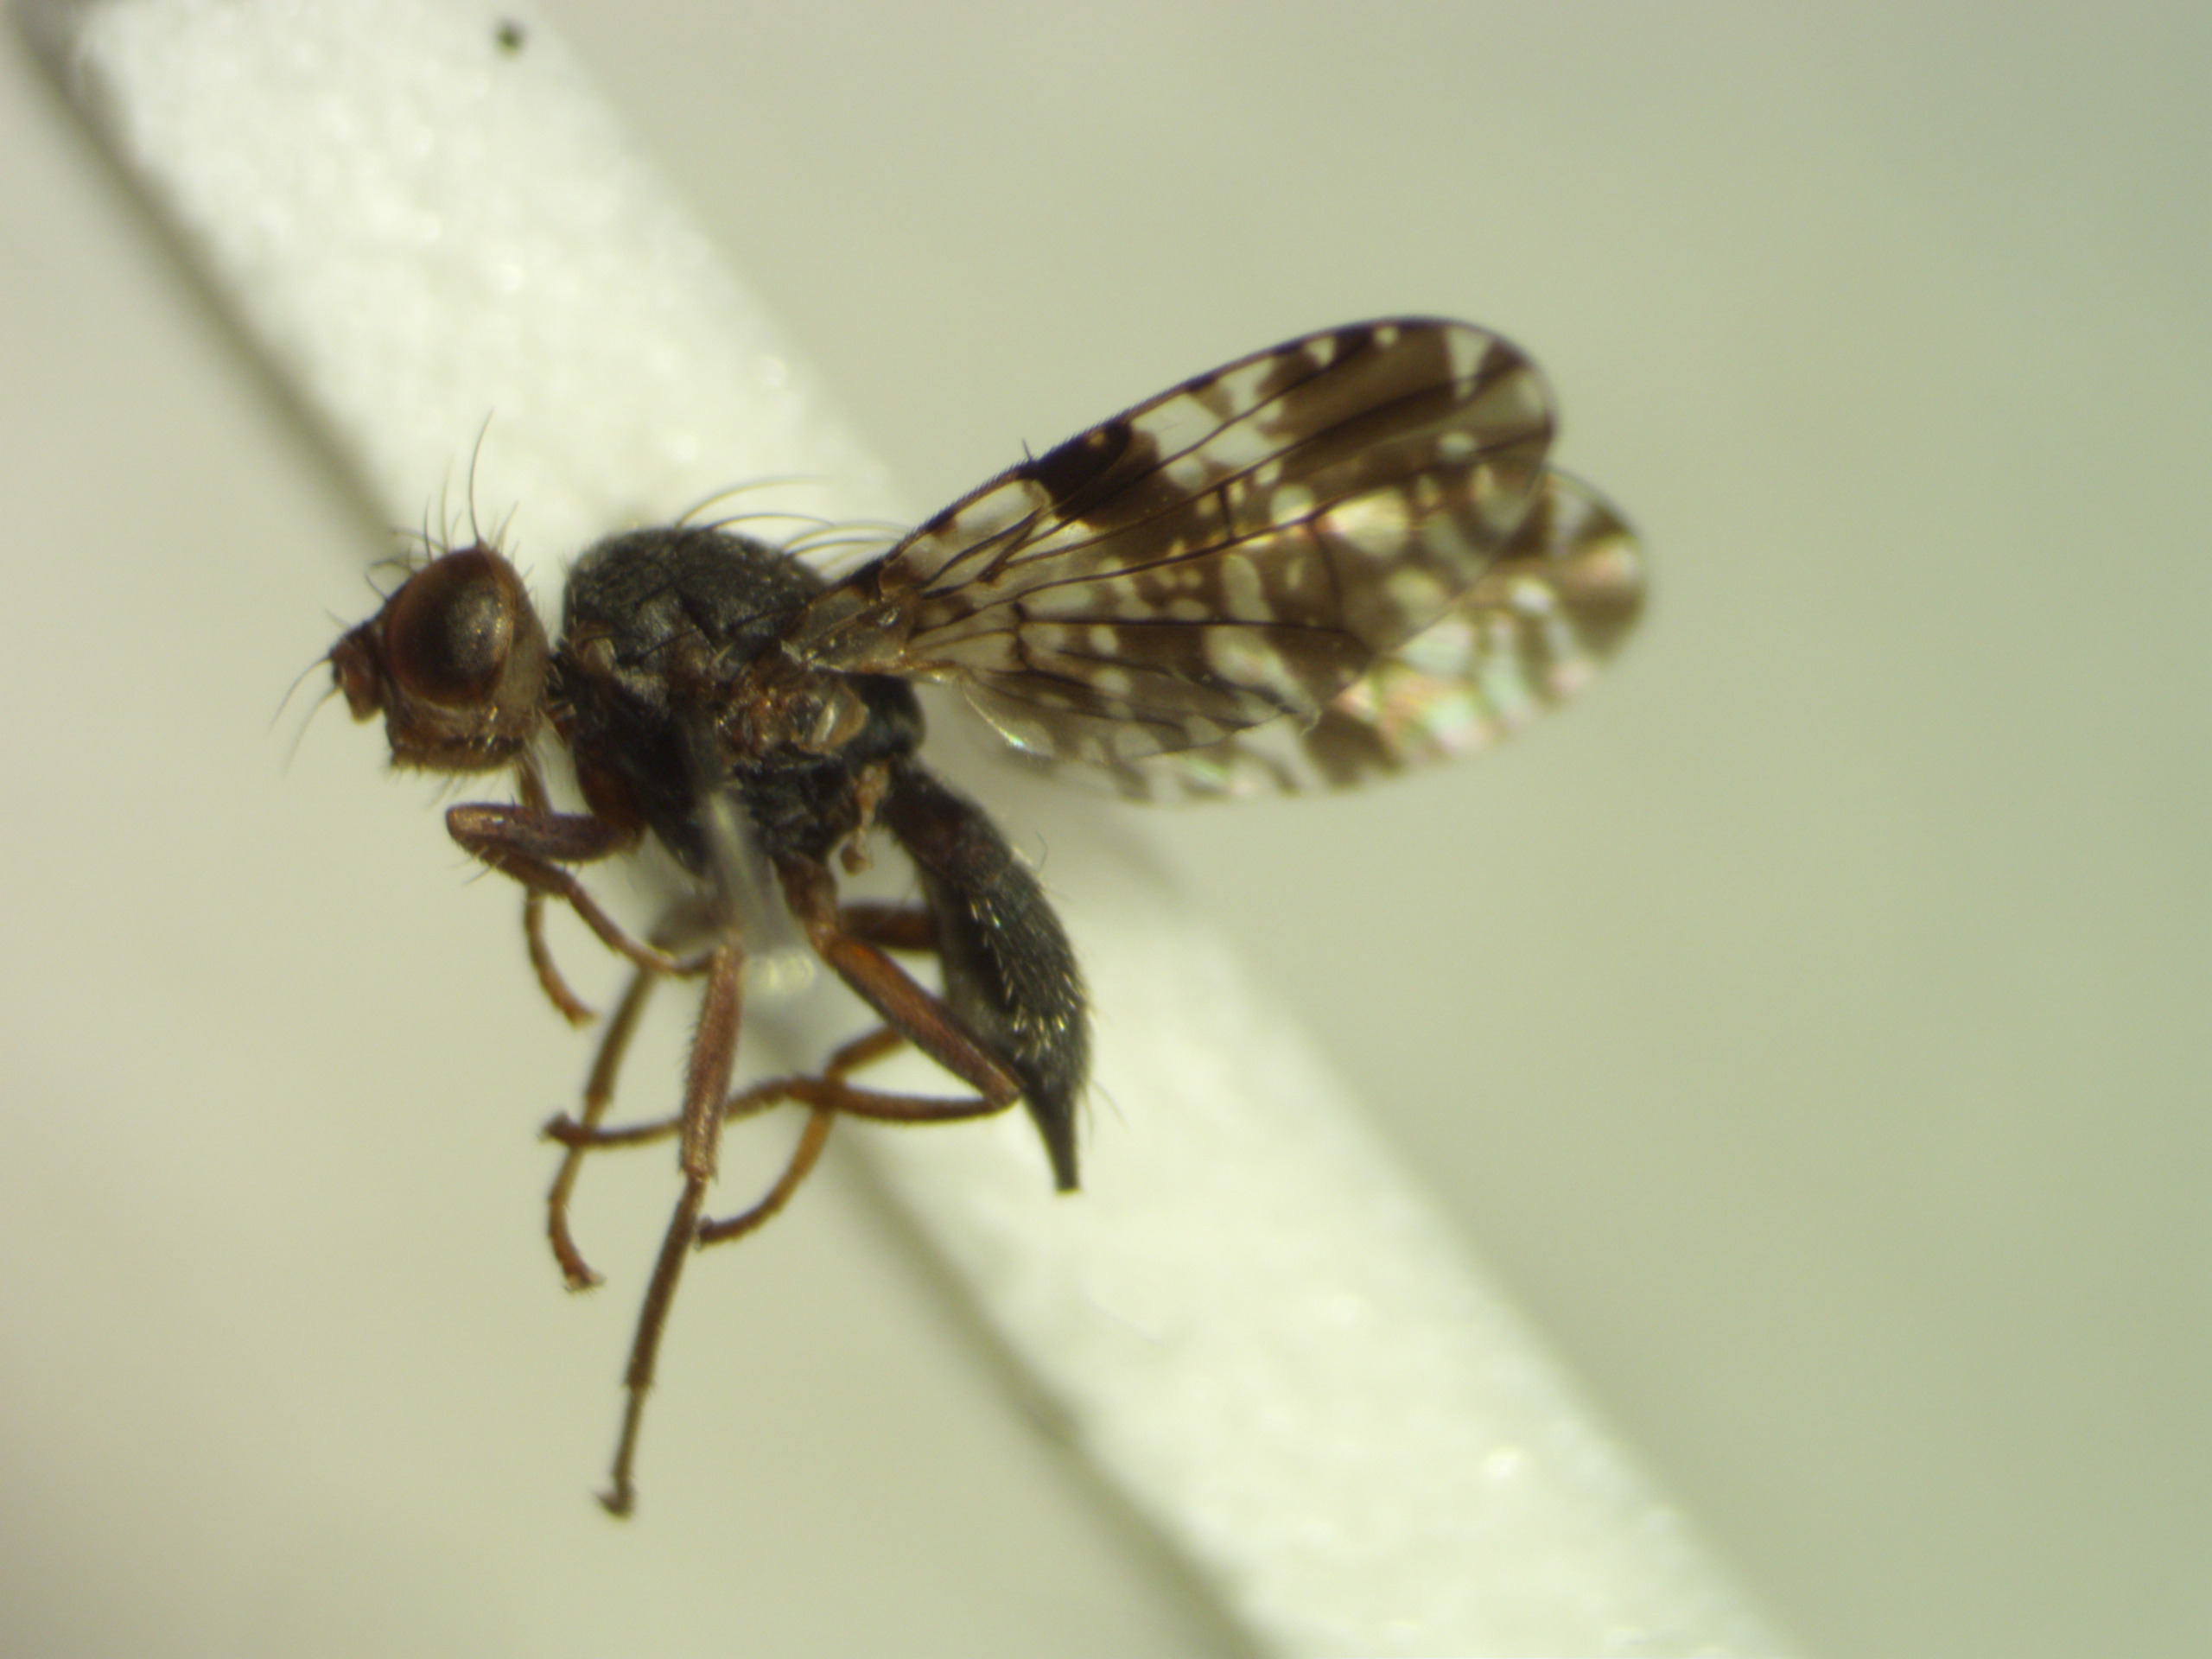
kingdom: Animalia
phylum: Arthropoda
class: Insecta
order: Diptera
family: Tephritidae
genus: Tephritis
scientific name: Tephritis vespertina
